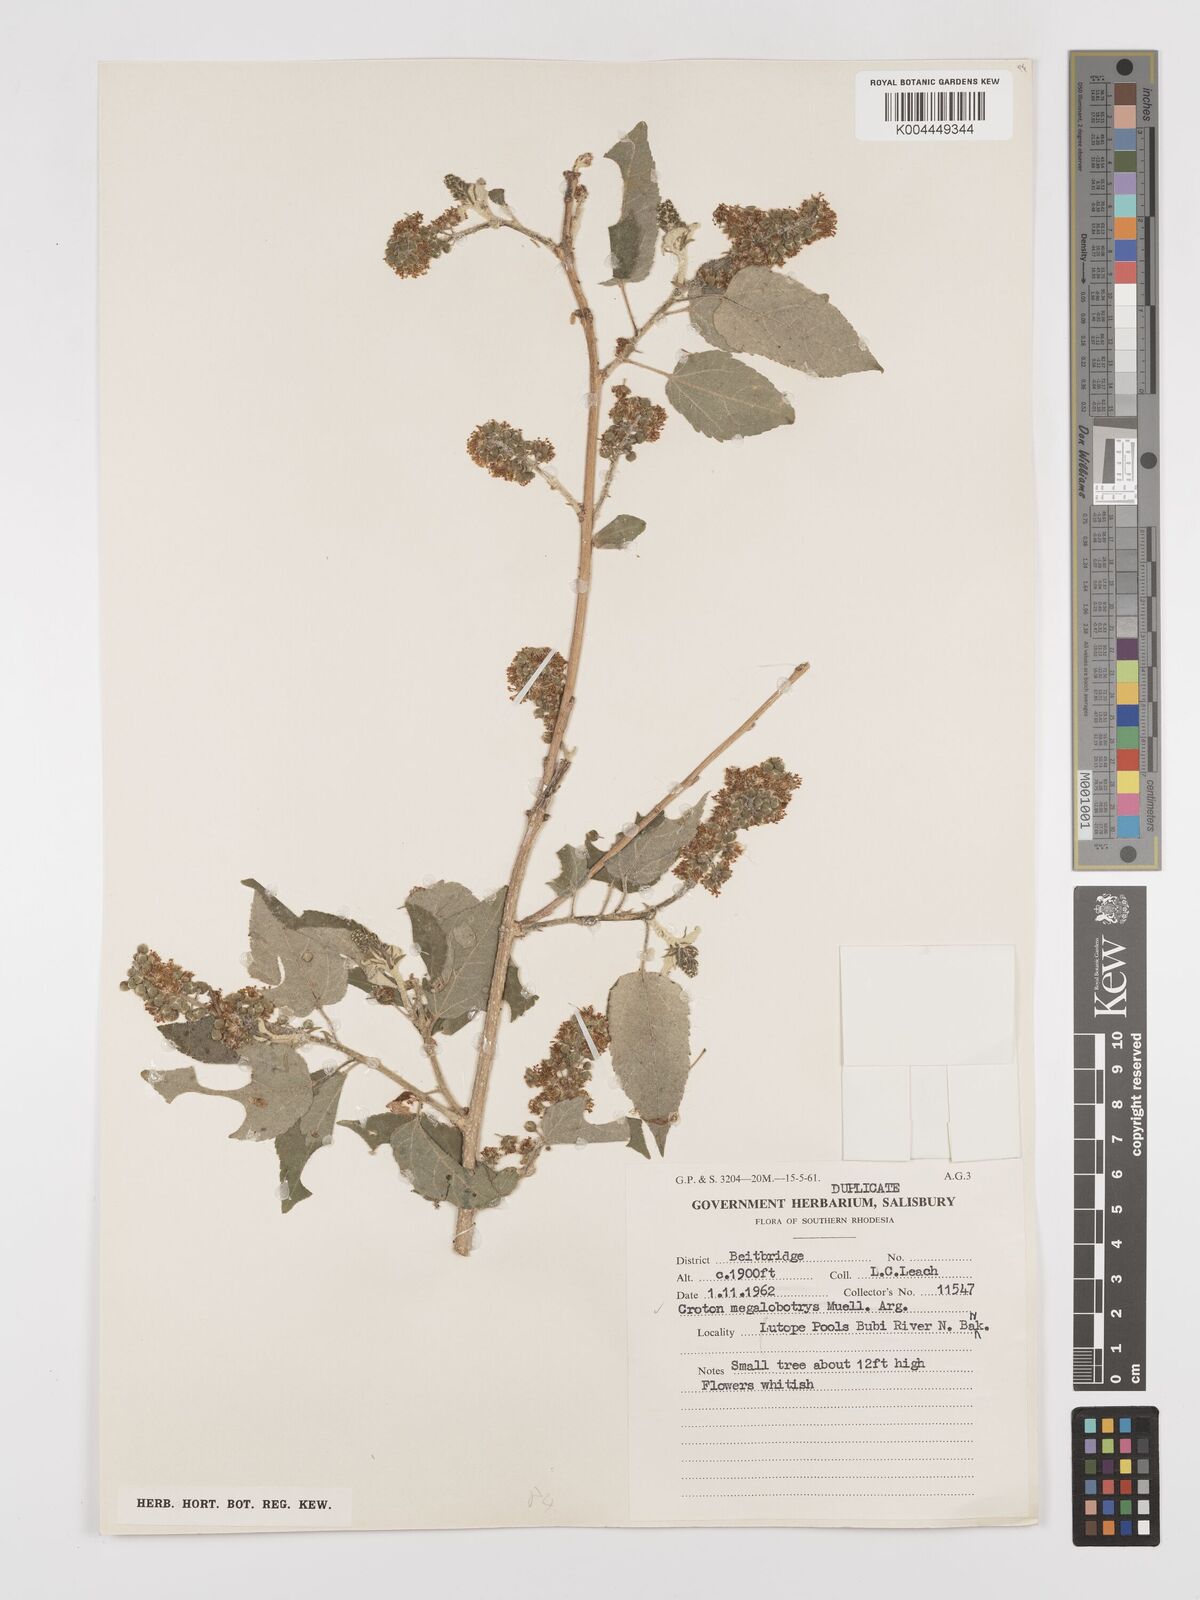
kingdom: Plantae
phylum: Tracheophyta
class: Magnoliopsida
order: Malpighiales
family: Euphorbiaceae
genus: Croton
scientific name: Croton megalobotrys
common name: Large fever berry
